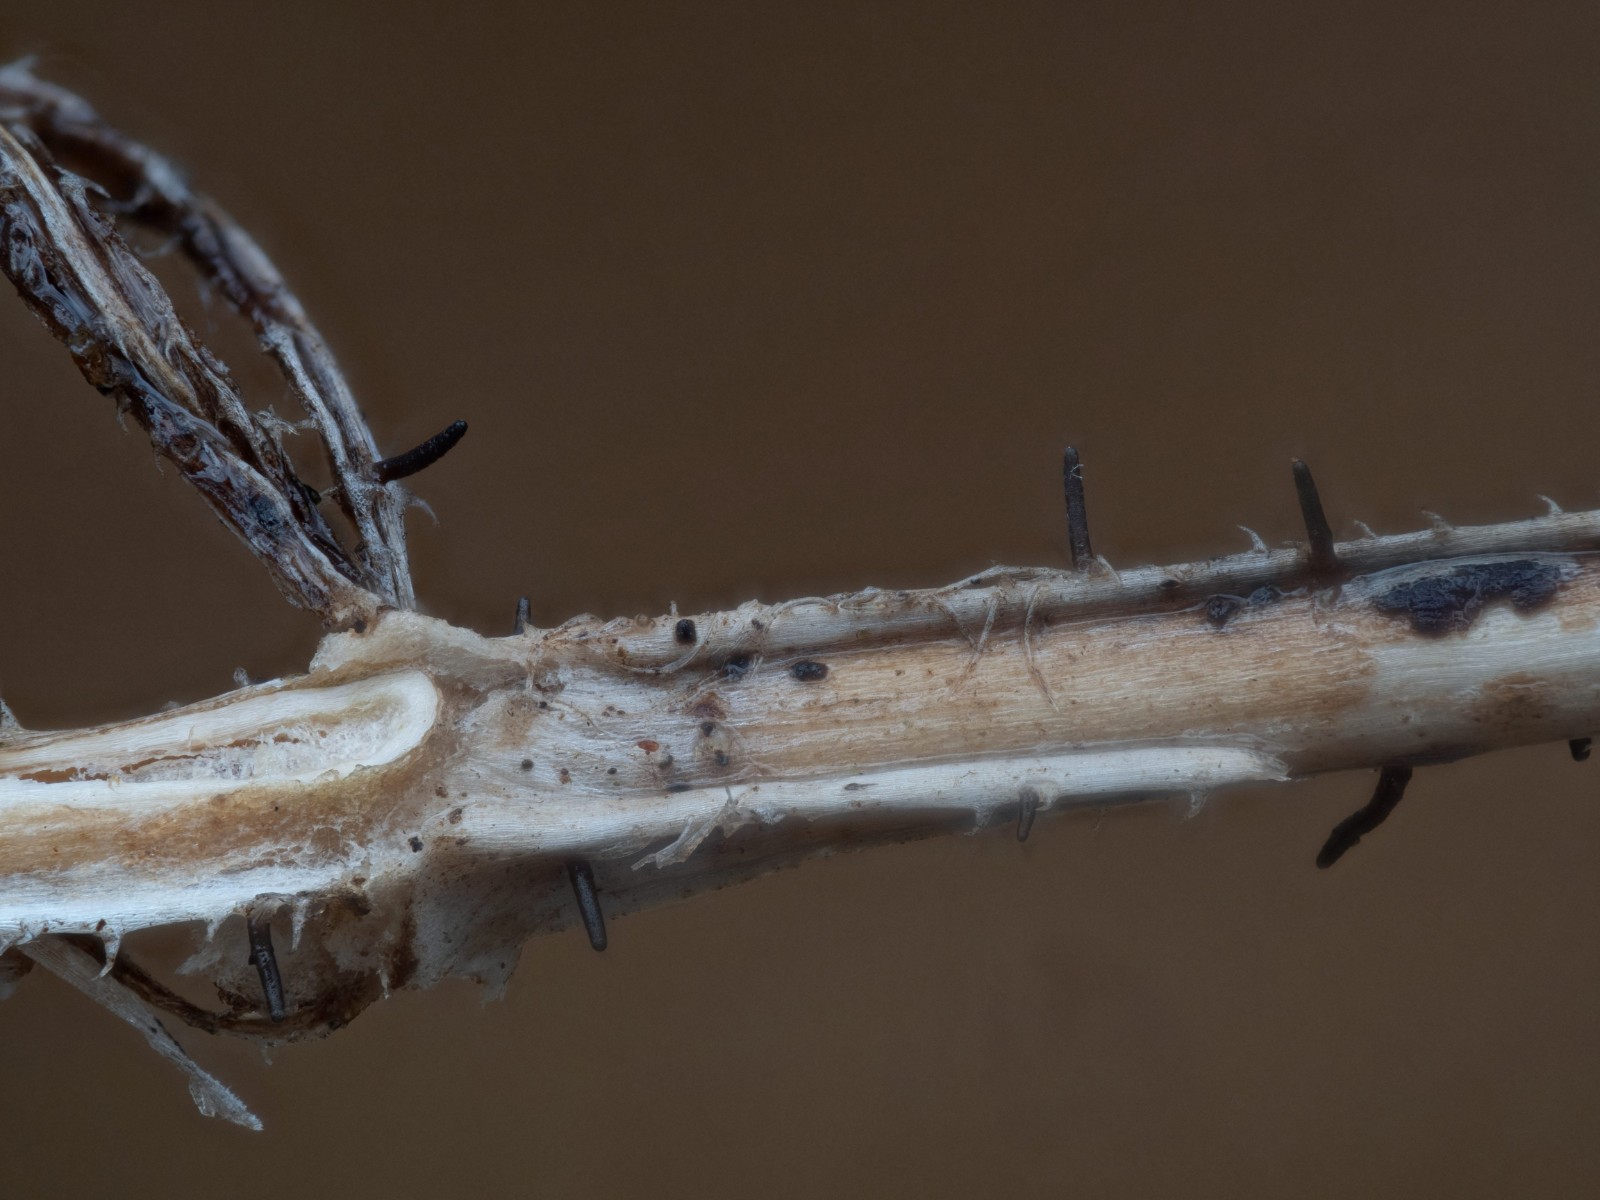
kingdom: Fungi
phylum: Ascomycota
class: Dothideomycetes
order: Acrospermales
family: Acrospermaceae
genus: Acrospermum
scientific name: Acrospermum pallidulum
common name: snerre-stængeltunge
